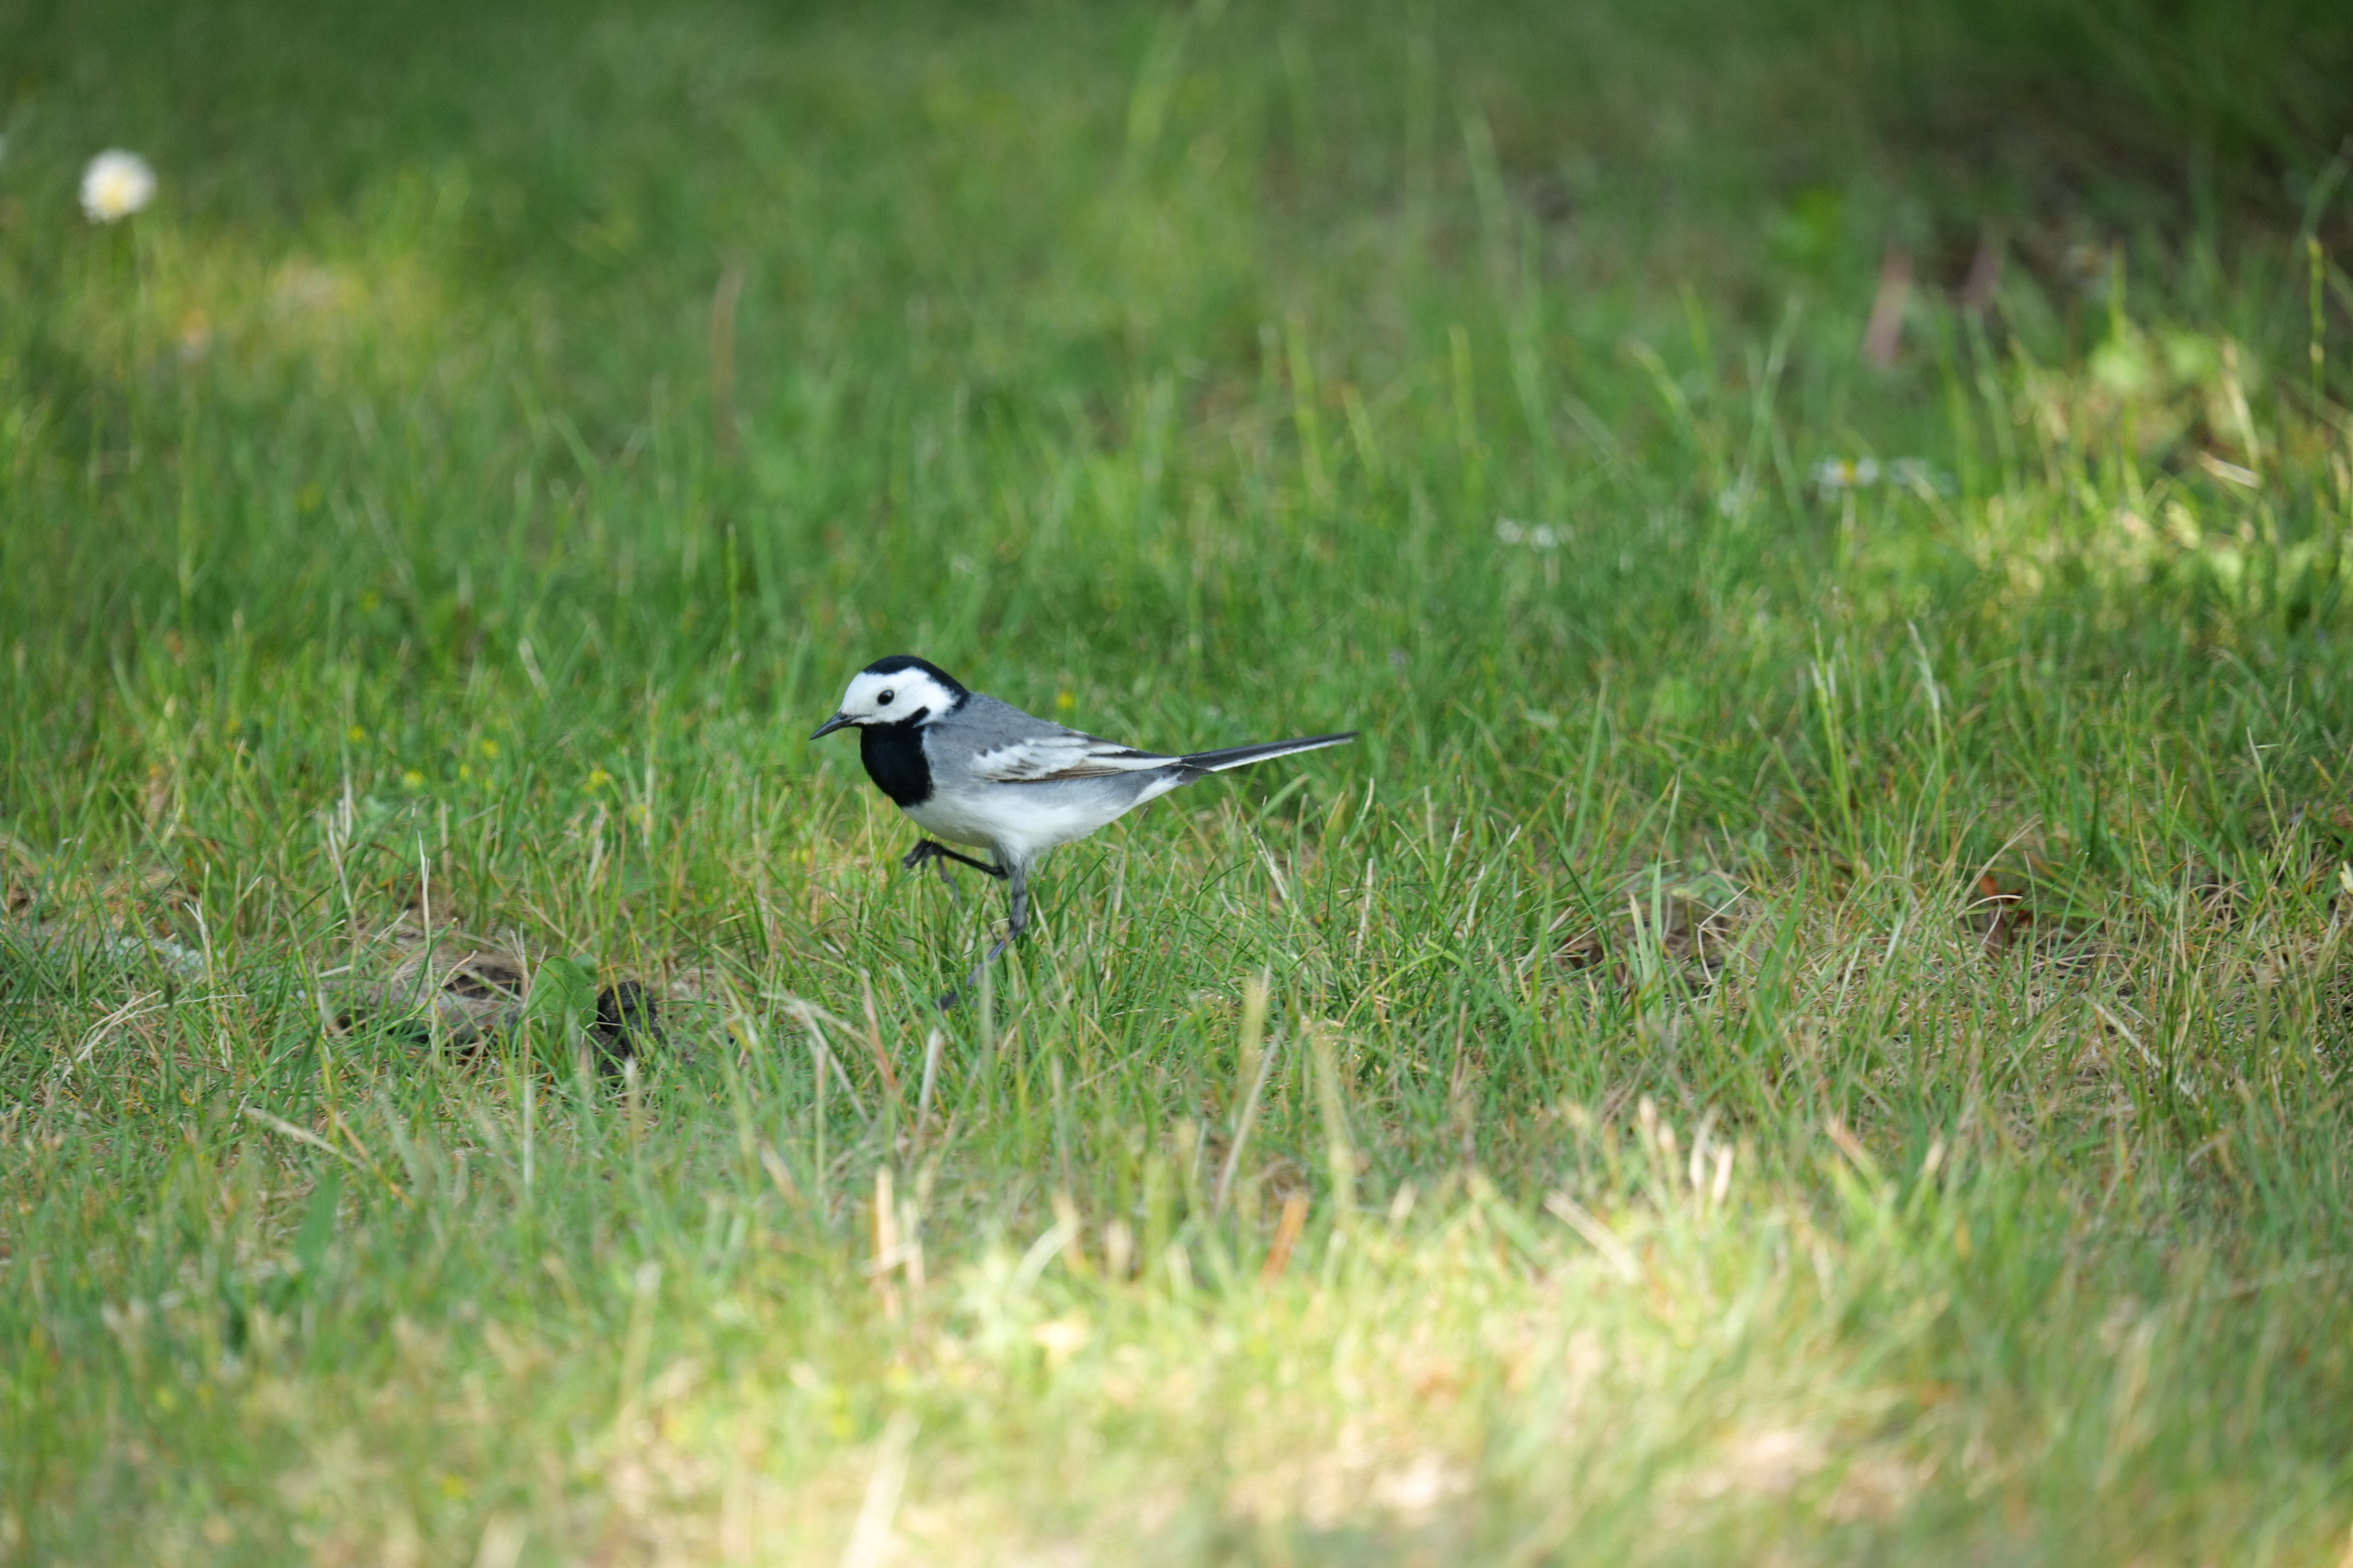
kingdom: Animalia
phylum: Chordata
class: Aves
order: Passeriformes
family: Motacillidae
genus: Motacilla
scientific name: Motacilla alba
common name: Hvid vipstjert
